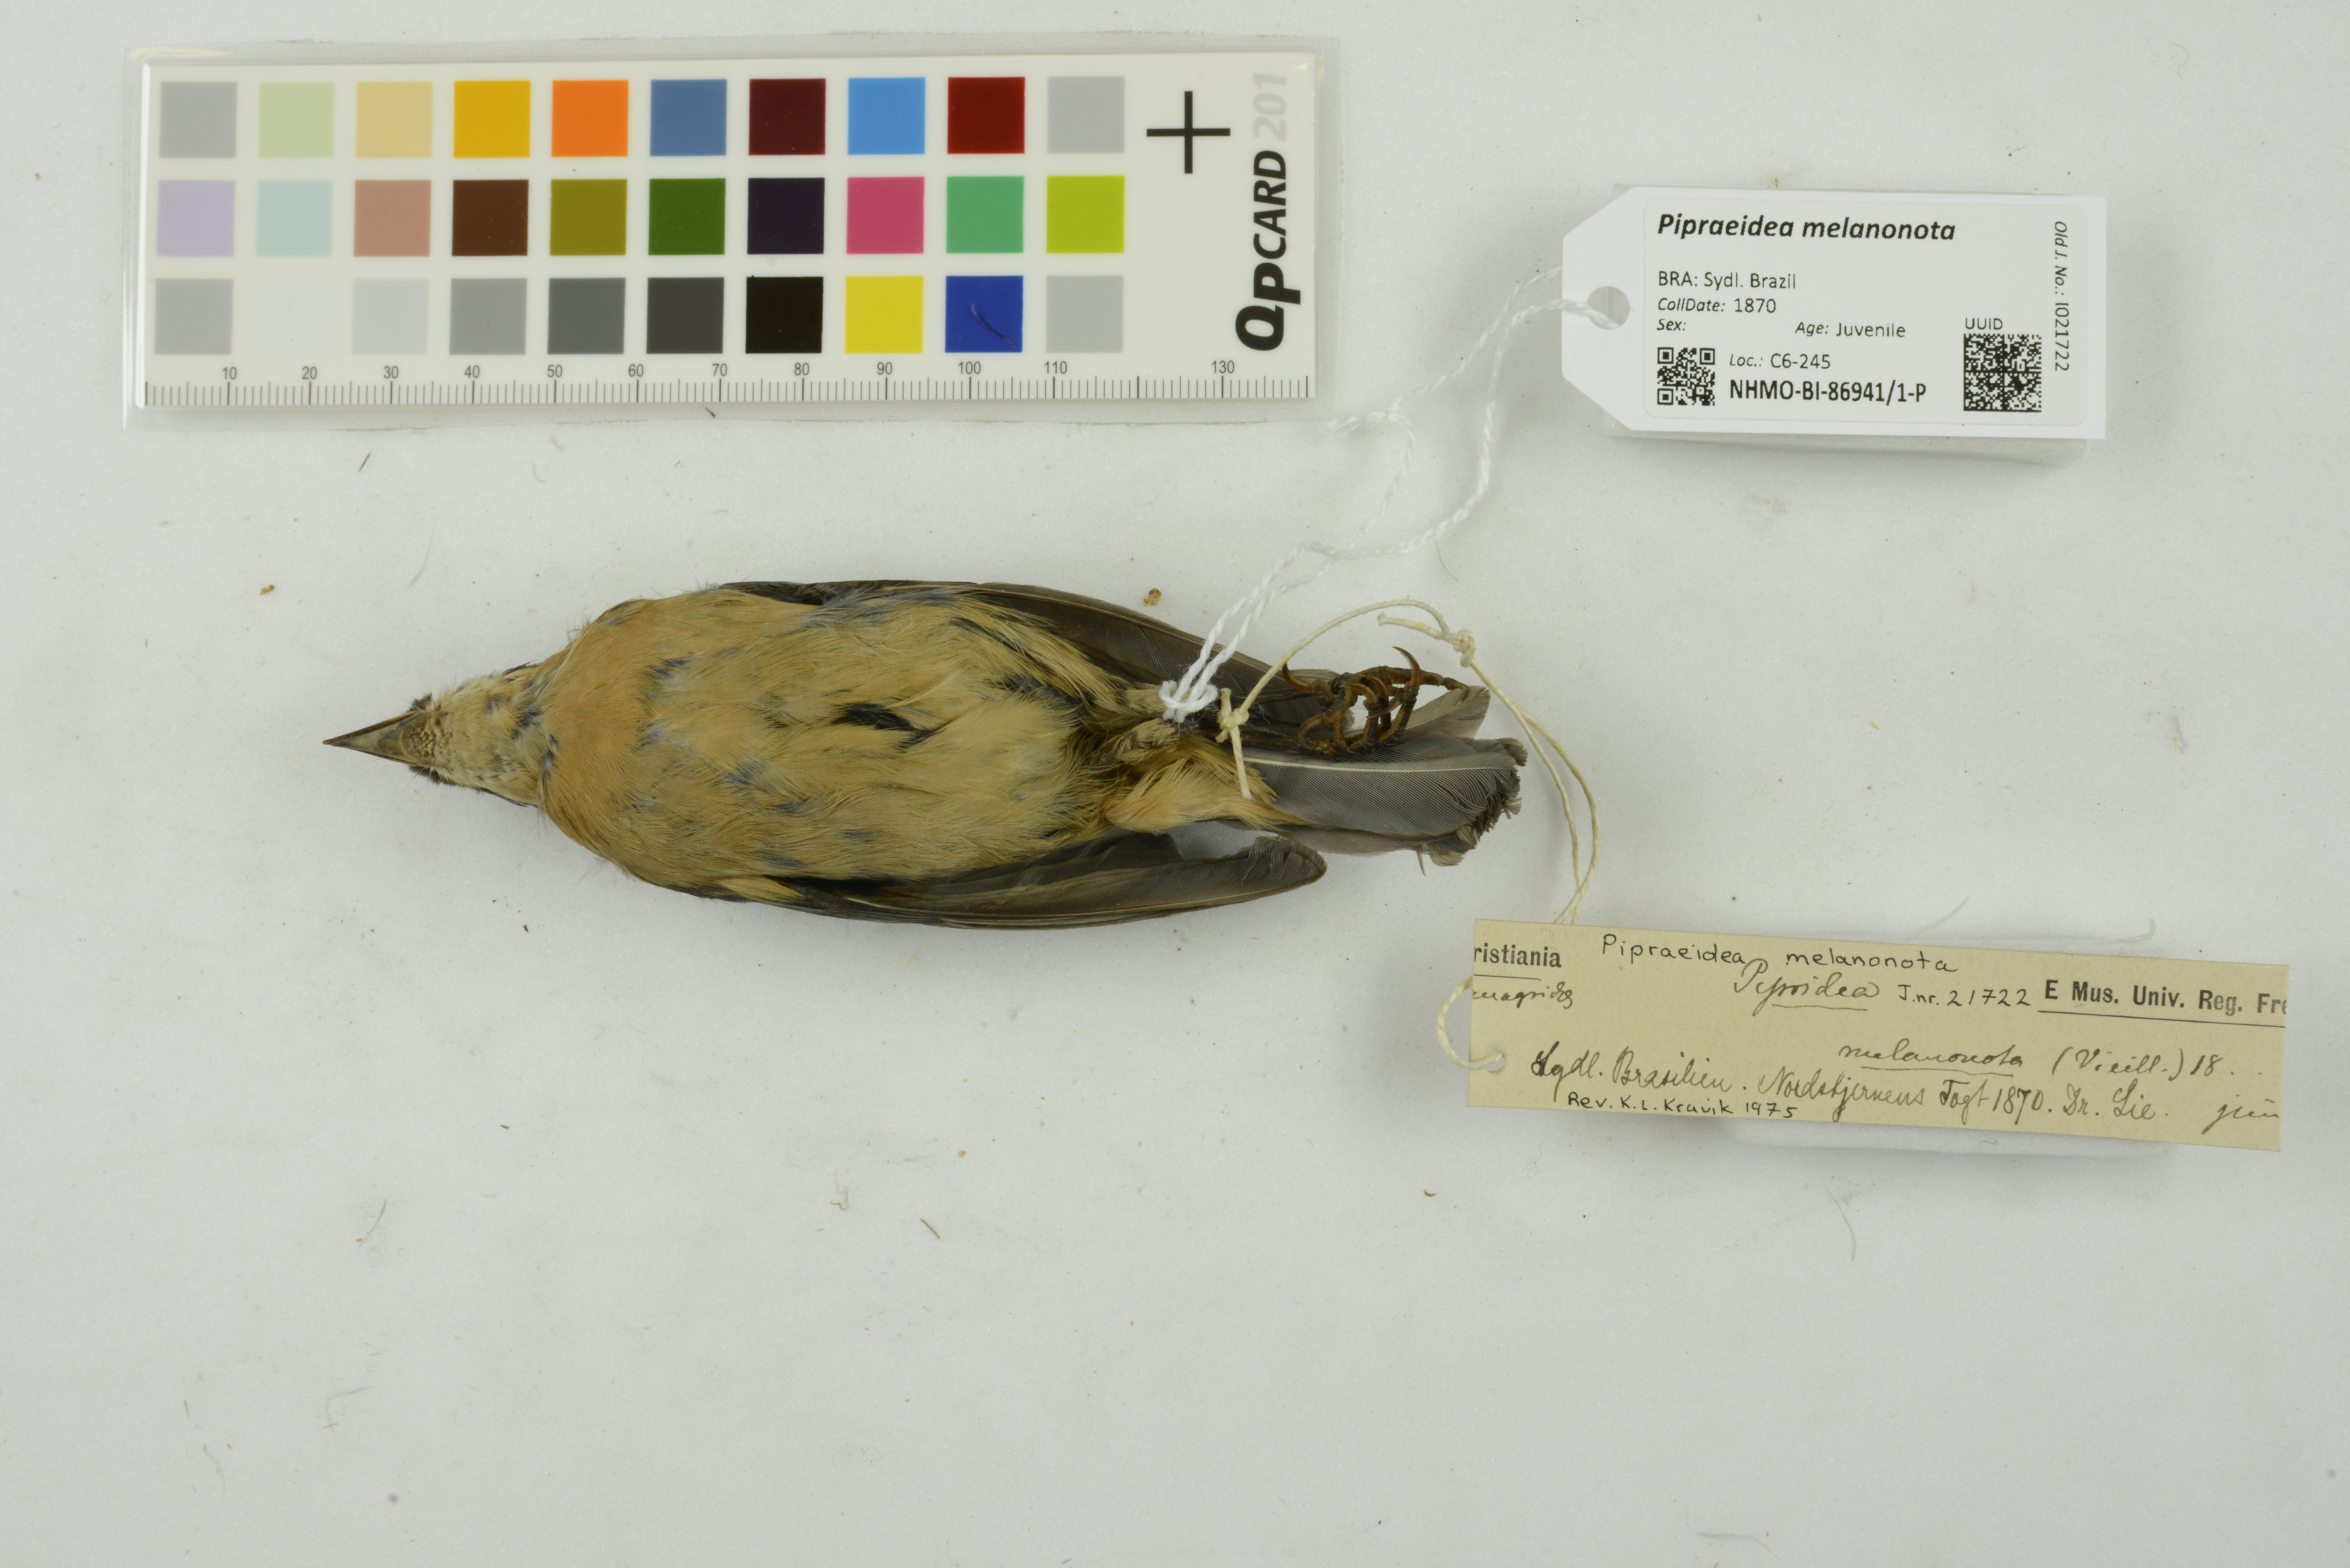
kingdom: Animalia
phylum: Chordata
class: Aves
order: Passeriformes
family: Thraupidae
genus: Pipraeidea
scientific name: Pipraeidea melanonota
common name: Fawn-breasted tanager
